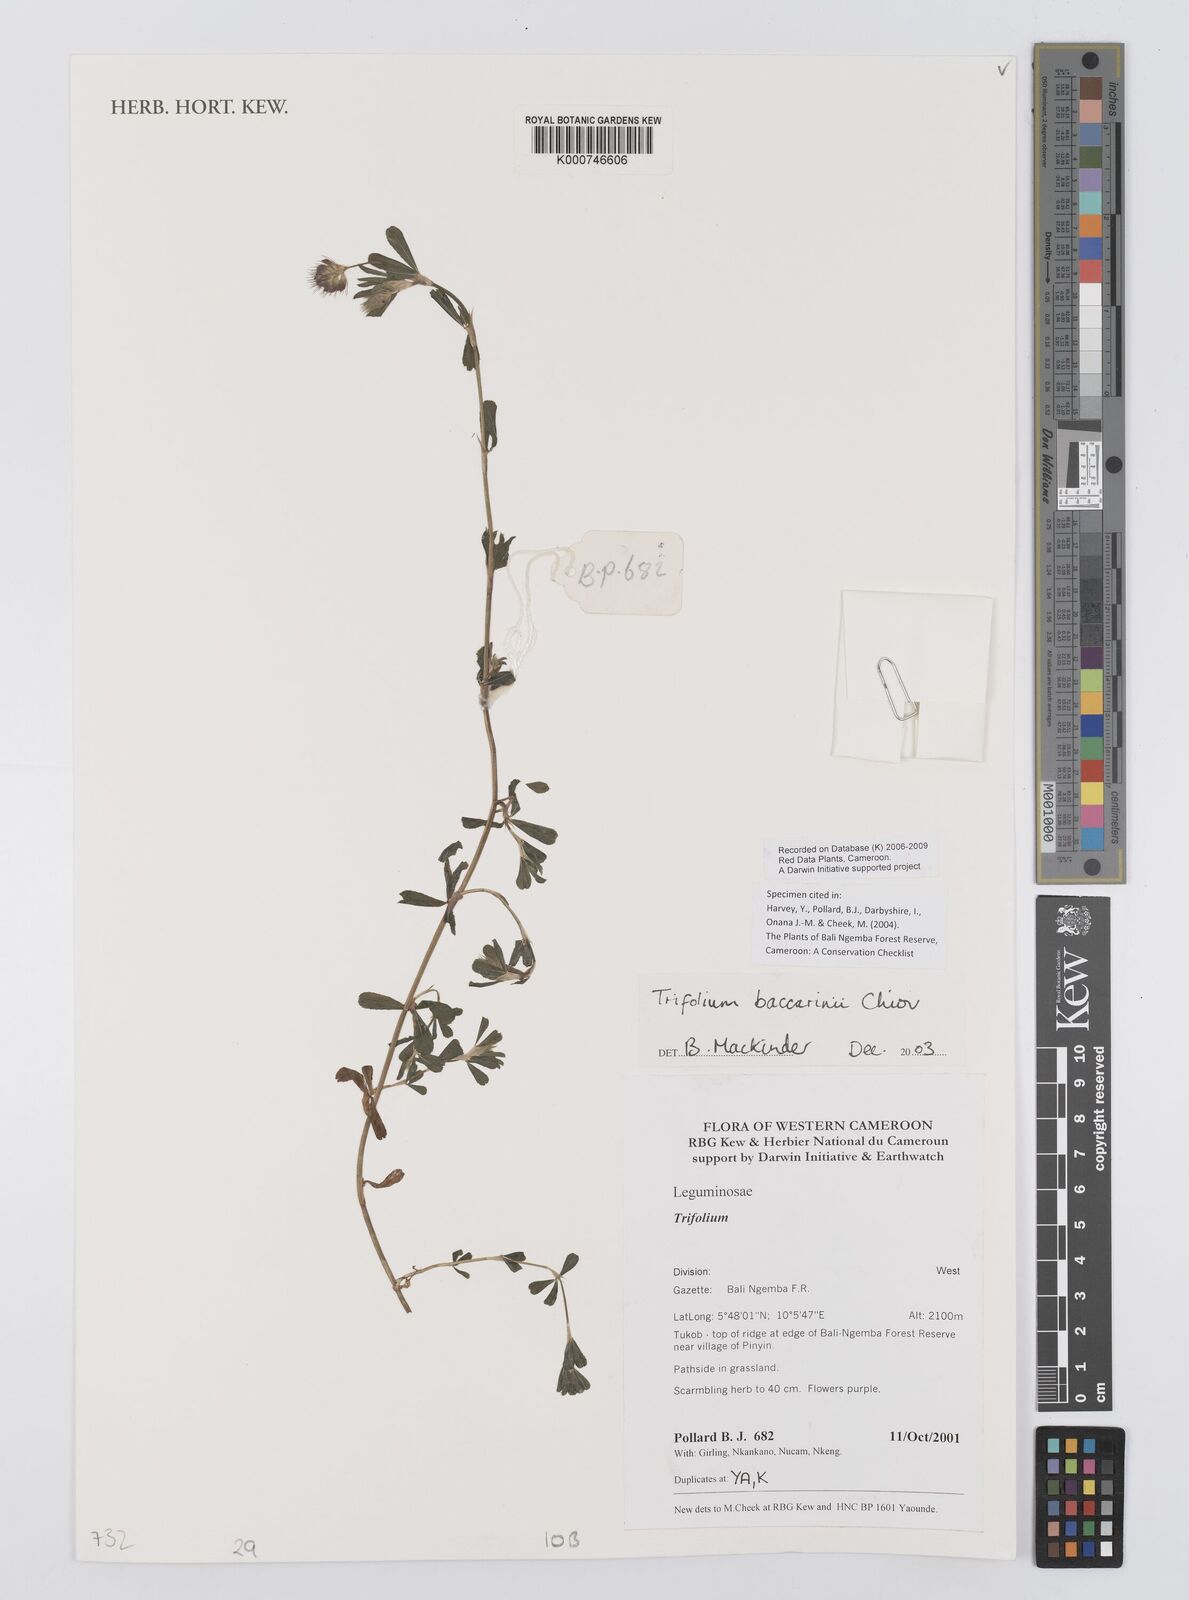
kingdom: Plantae
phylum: Tracheophyta
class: Magnoliopsida
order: Fabales
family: Fabaceae
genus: Trifolium
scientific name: Trifolium baccarinii
